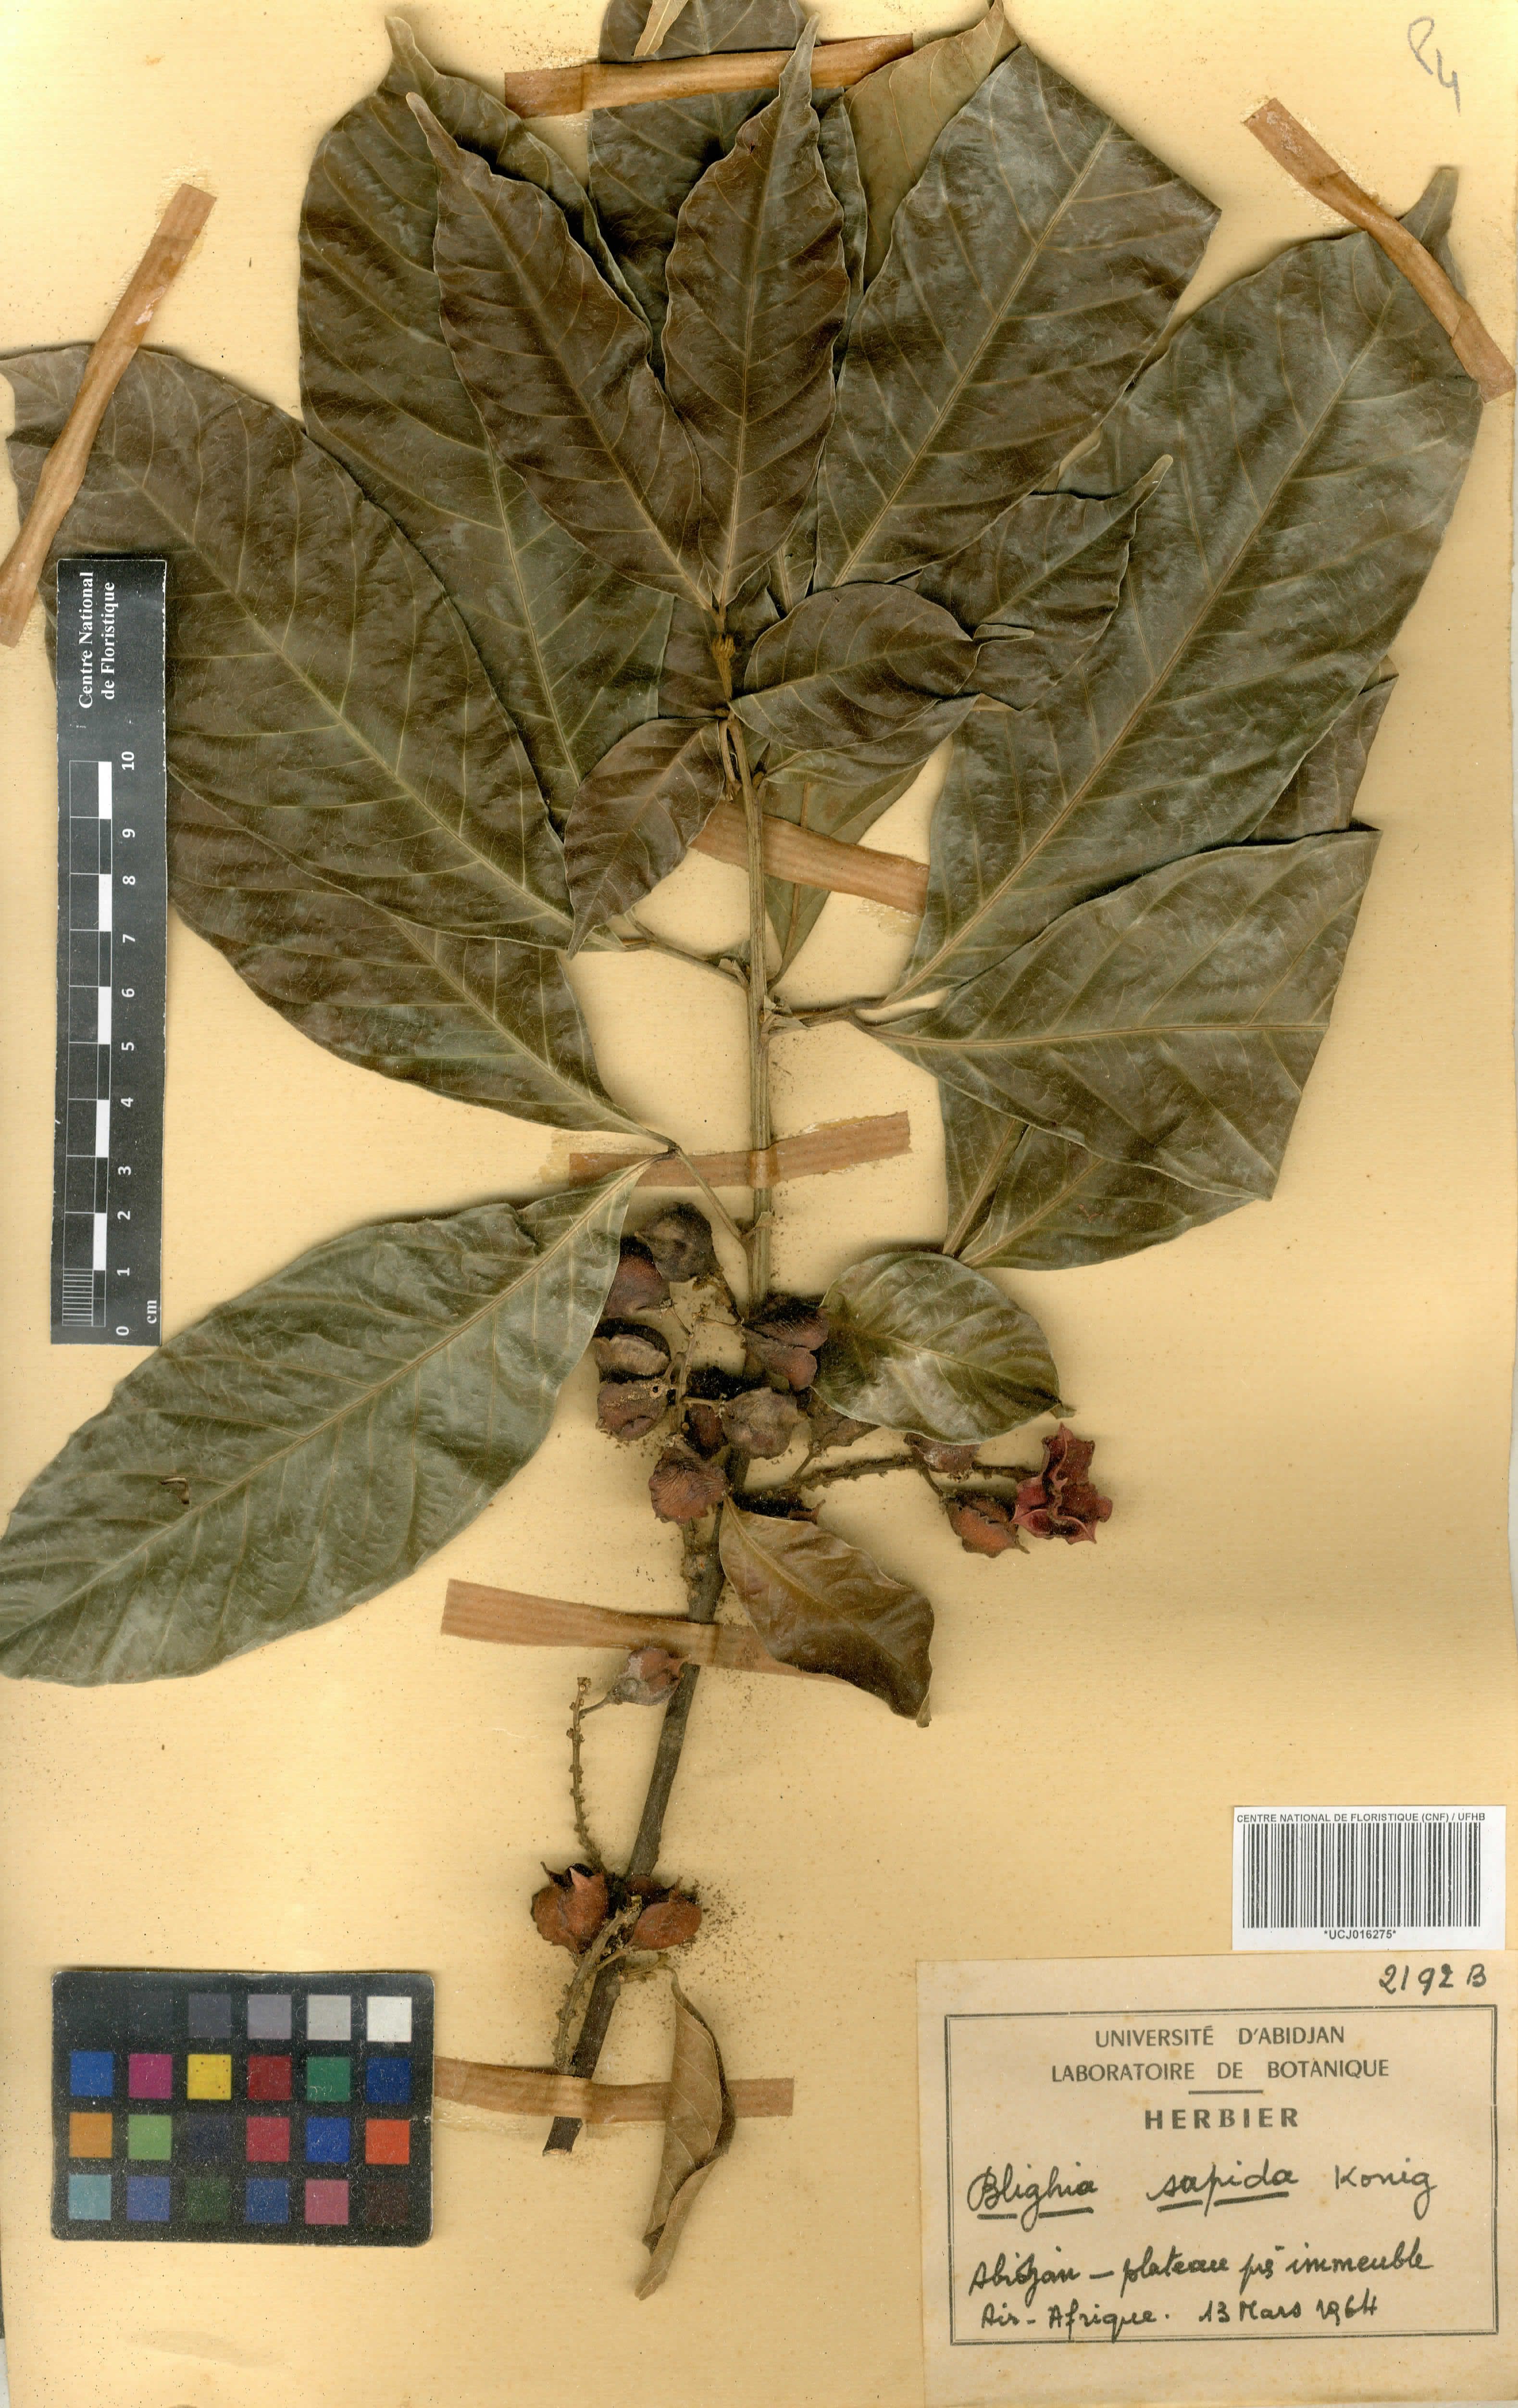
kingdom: Plantae
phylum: Tracheophyta
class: Magnoliopsida
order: Sapindales
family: Sapindaceae
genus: Blighia
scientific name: Blighia sapida
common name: Akee
